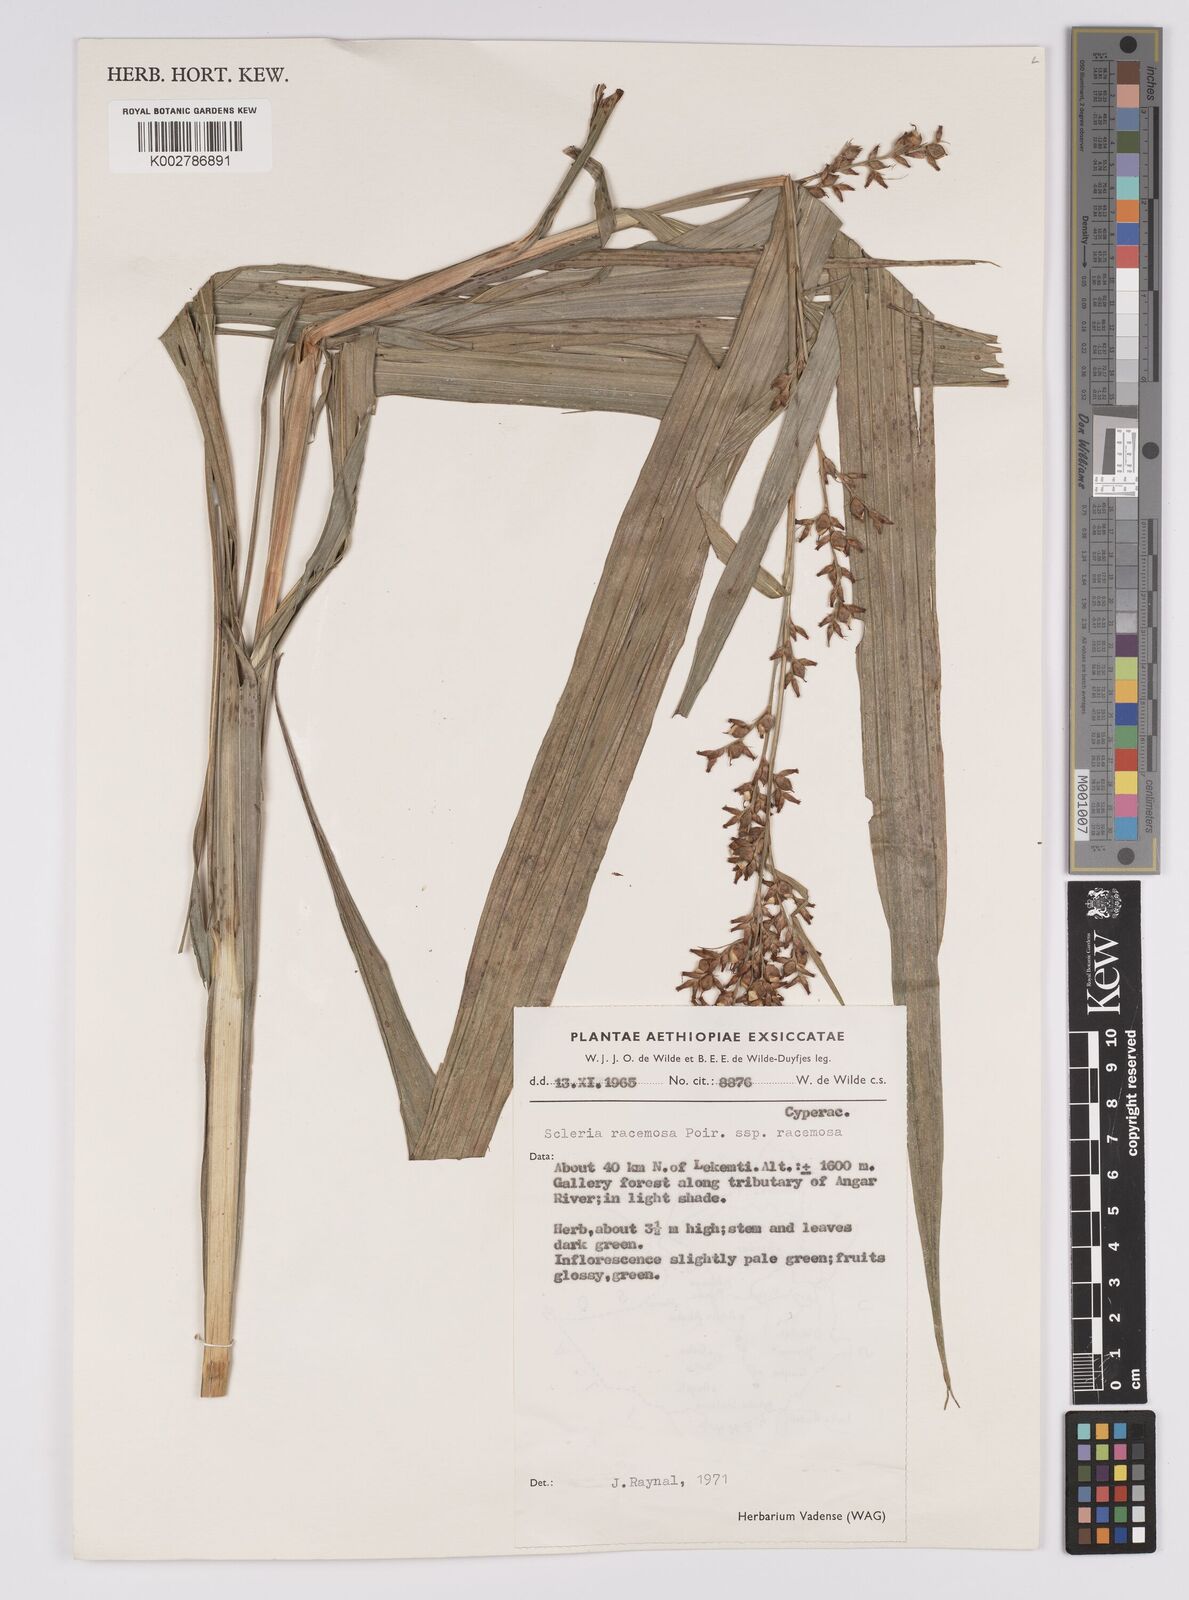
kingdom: Plantae
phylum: Tracheophyta
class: Liliopsida
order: Poales
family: Cyperaceae
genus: Scleria
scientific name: Scleria racemosa
